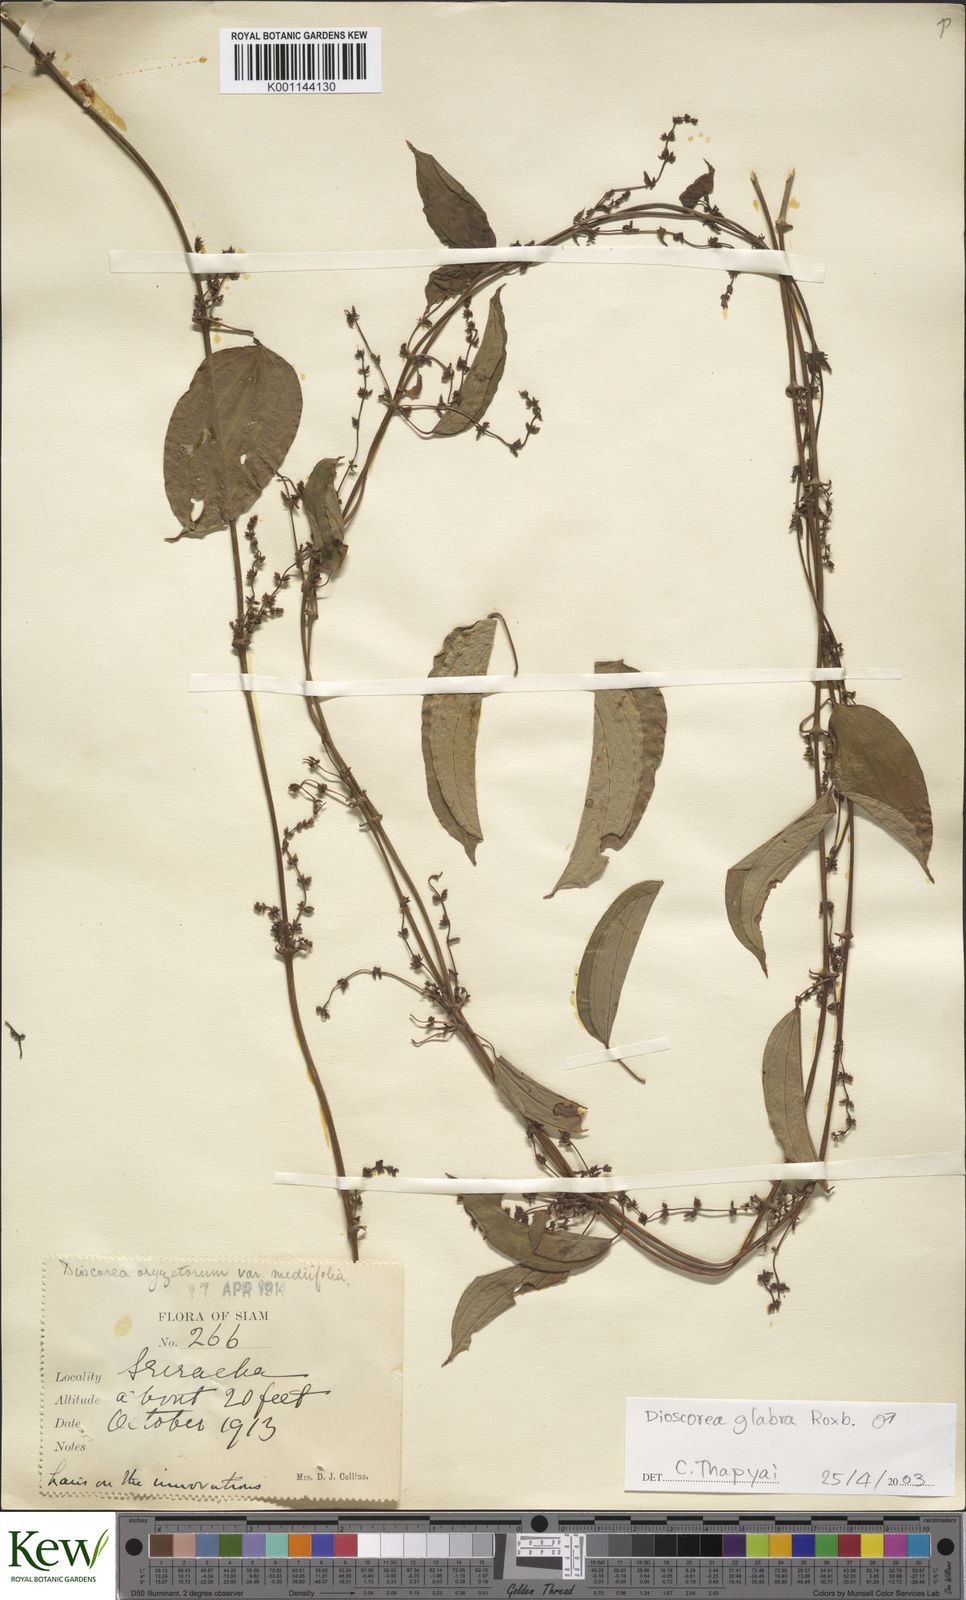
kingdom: Plantae
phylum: Tracheophyta
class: Liliopsida
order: Dioscoreales
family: Dioscoreaceae
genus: Dioscorea
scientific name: Dioscorea glabra
